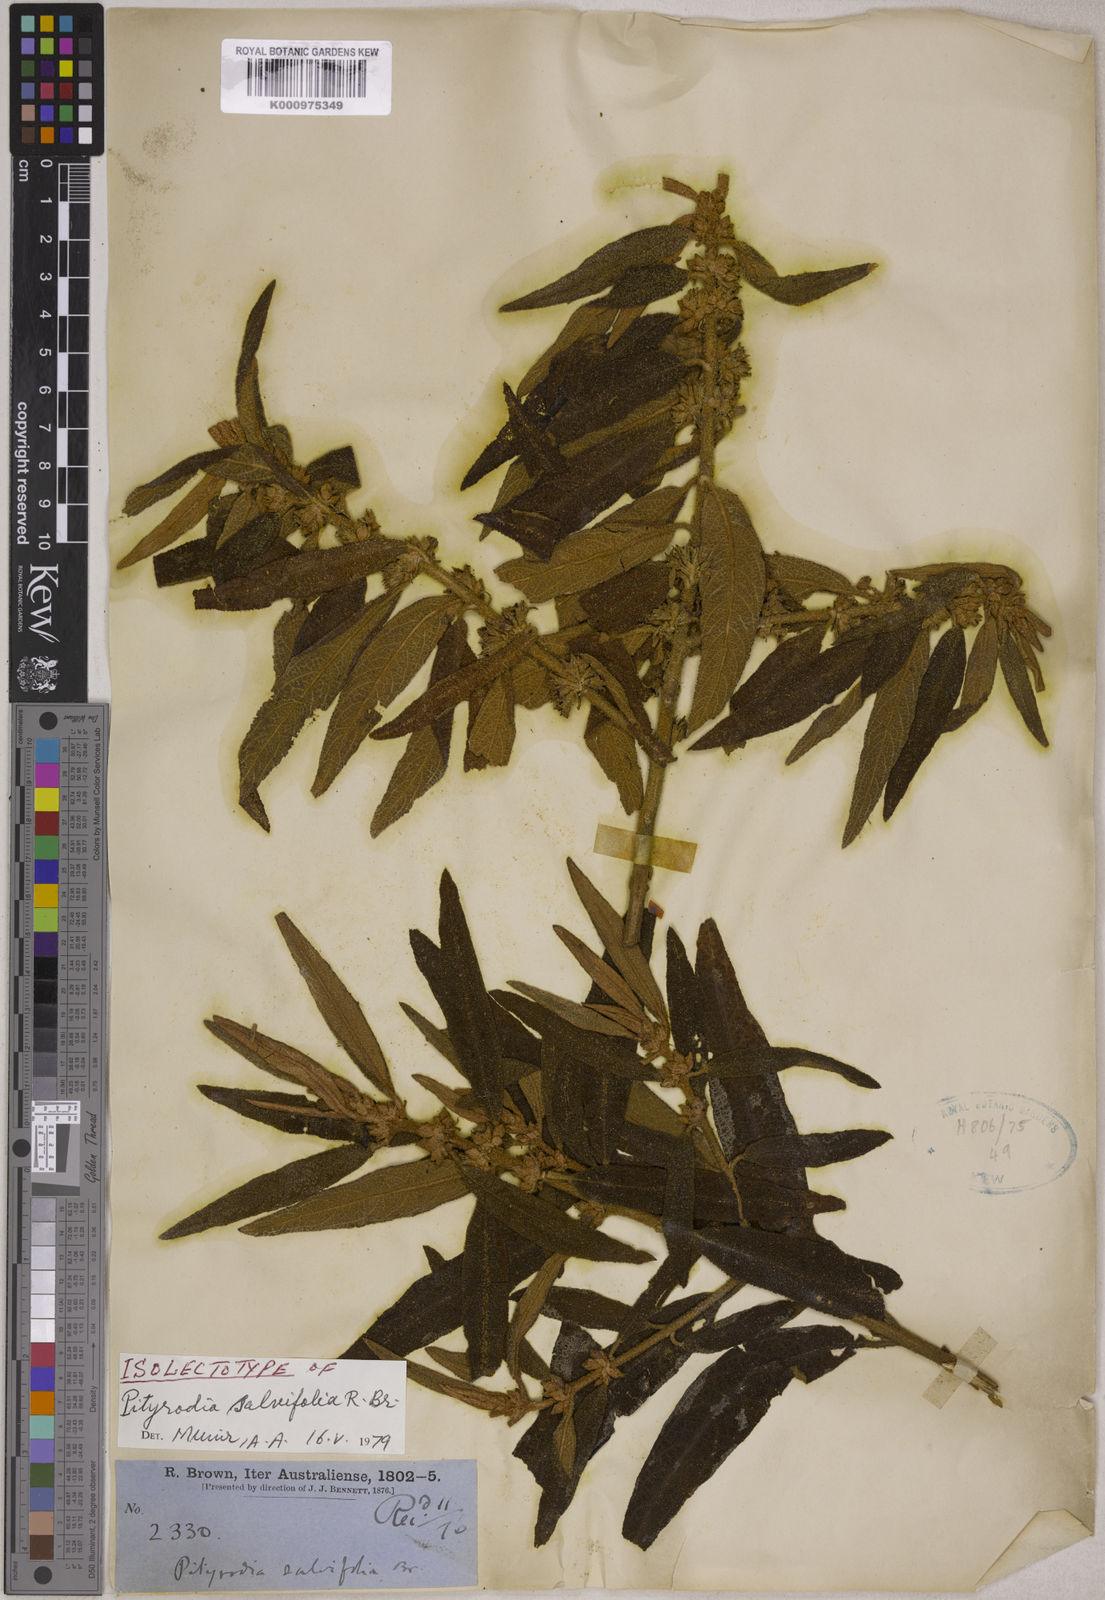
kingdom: Plantae
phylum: Tracheophyta
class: Magnoliopsida
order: Lamiales
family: Lamiaceae
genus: Pityrodia
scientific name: Pityrodia salviifolia
